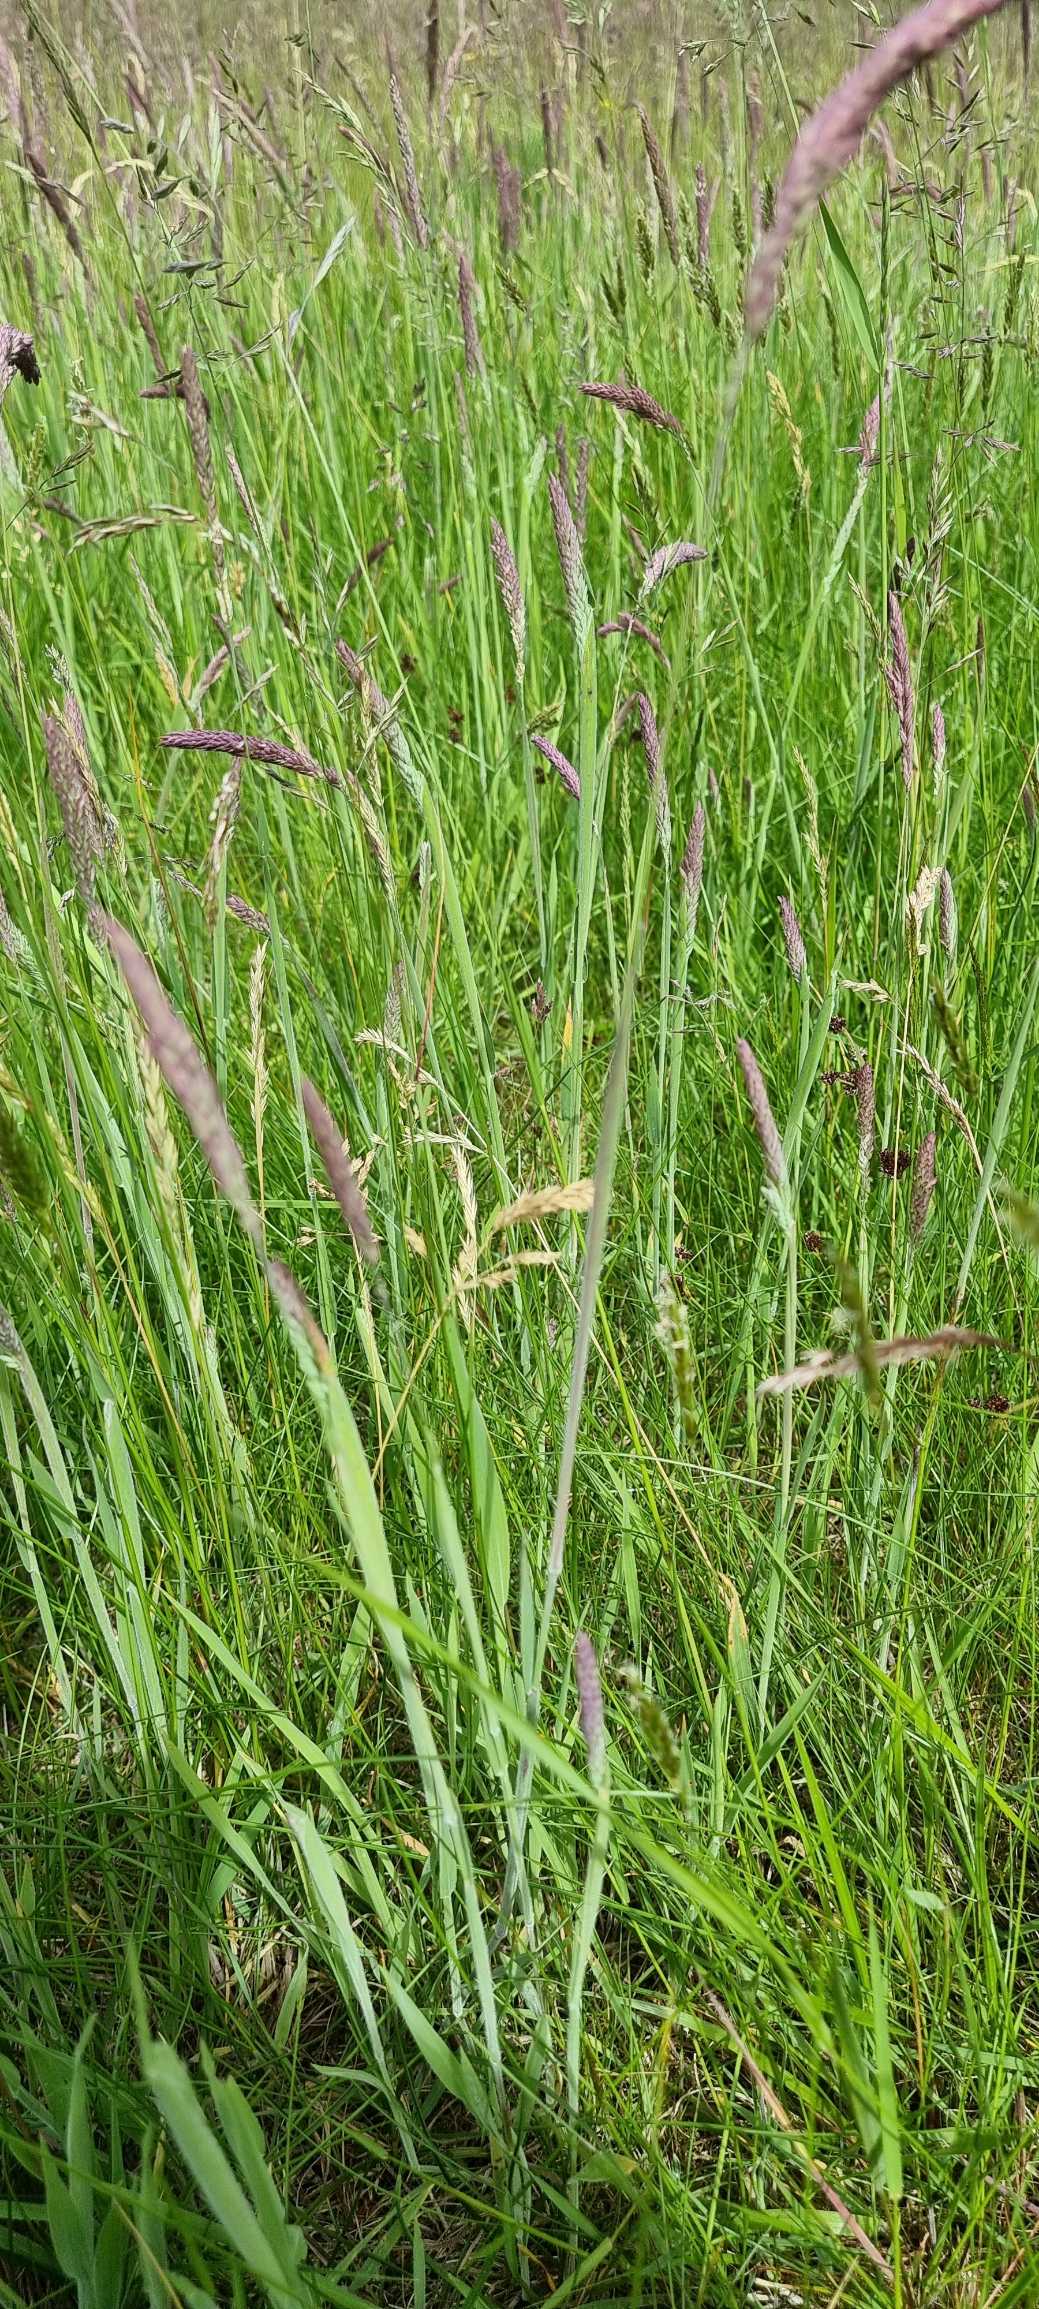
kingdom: Plantae
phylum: Tracheophyta
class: Liliopsida
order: Poales
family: Poaceae
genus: Holcus
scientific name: Holcus lanatus
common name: Fløjlsgræs
